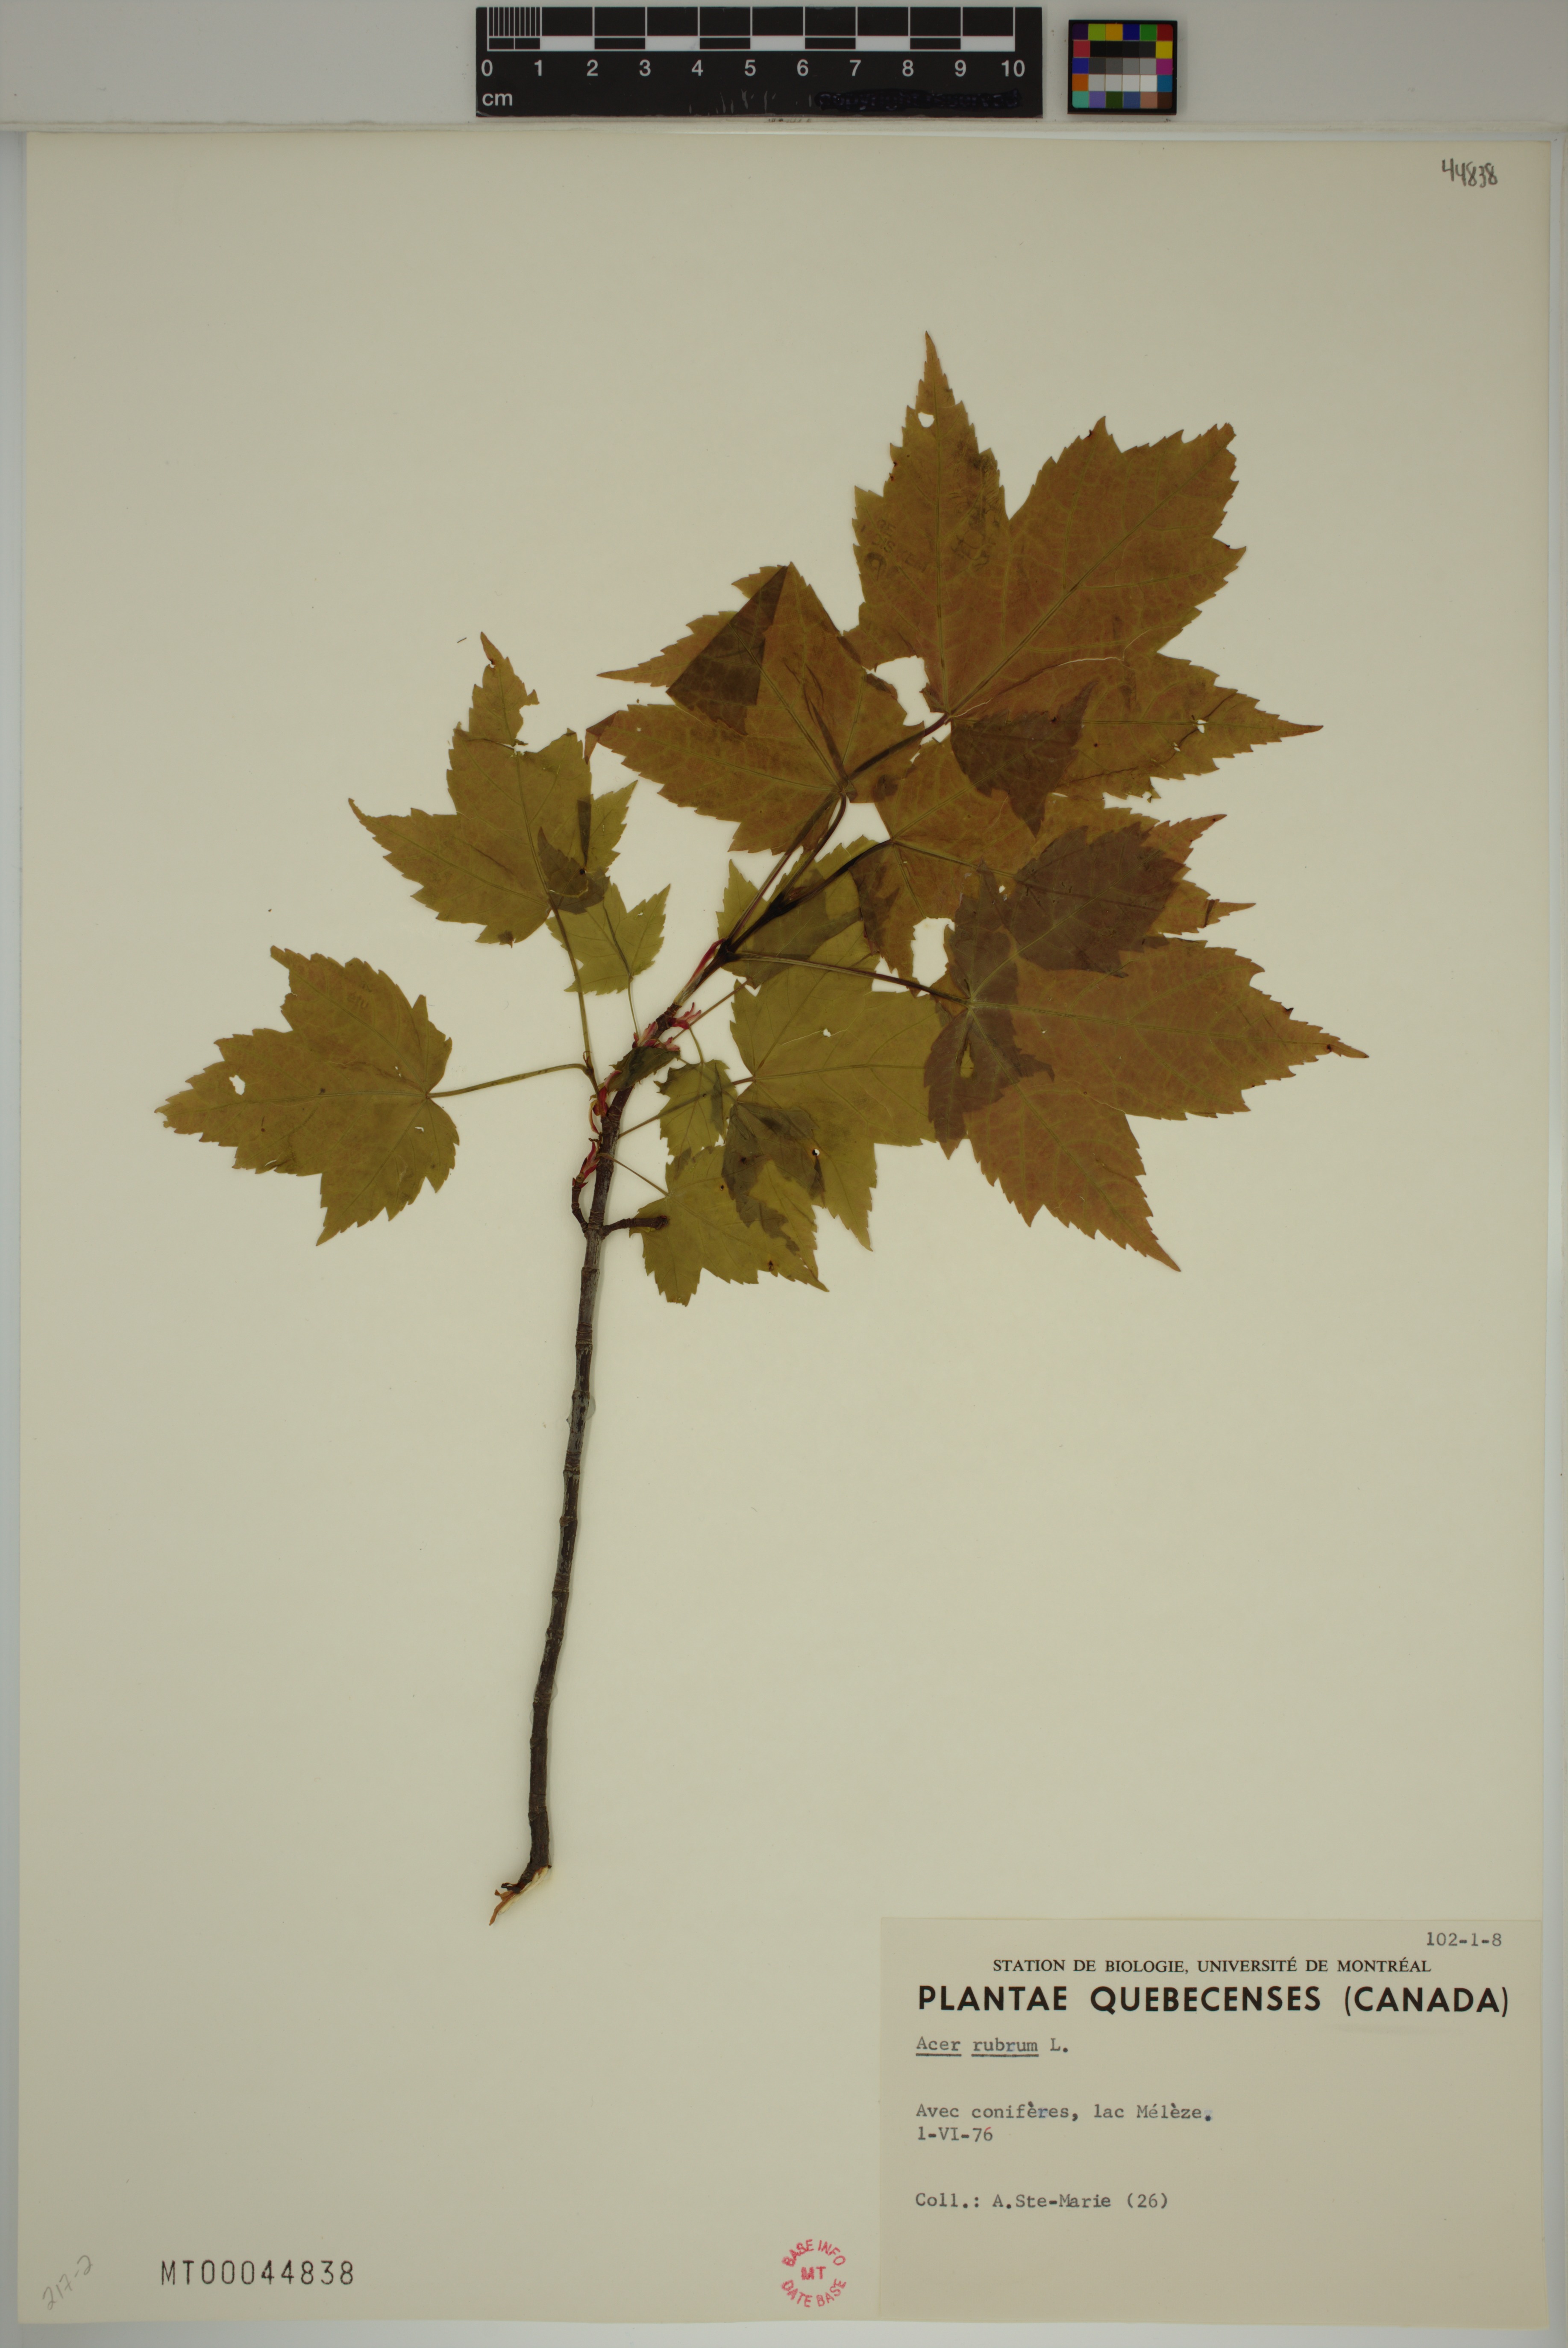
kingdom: Plantae
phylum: Tracheophyta
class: Magnoliopsida
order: Sapindales
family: Sapindaceae
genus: Acer
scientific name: Acer rubrum
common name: Red maple
